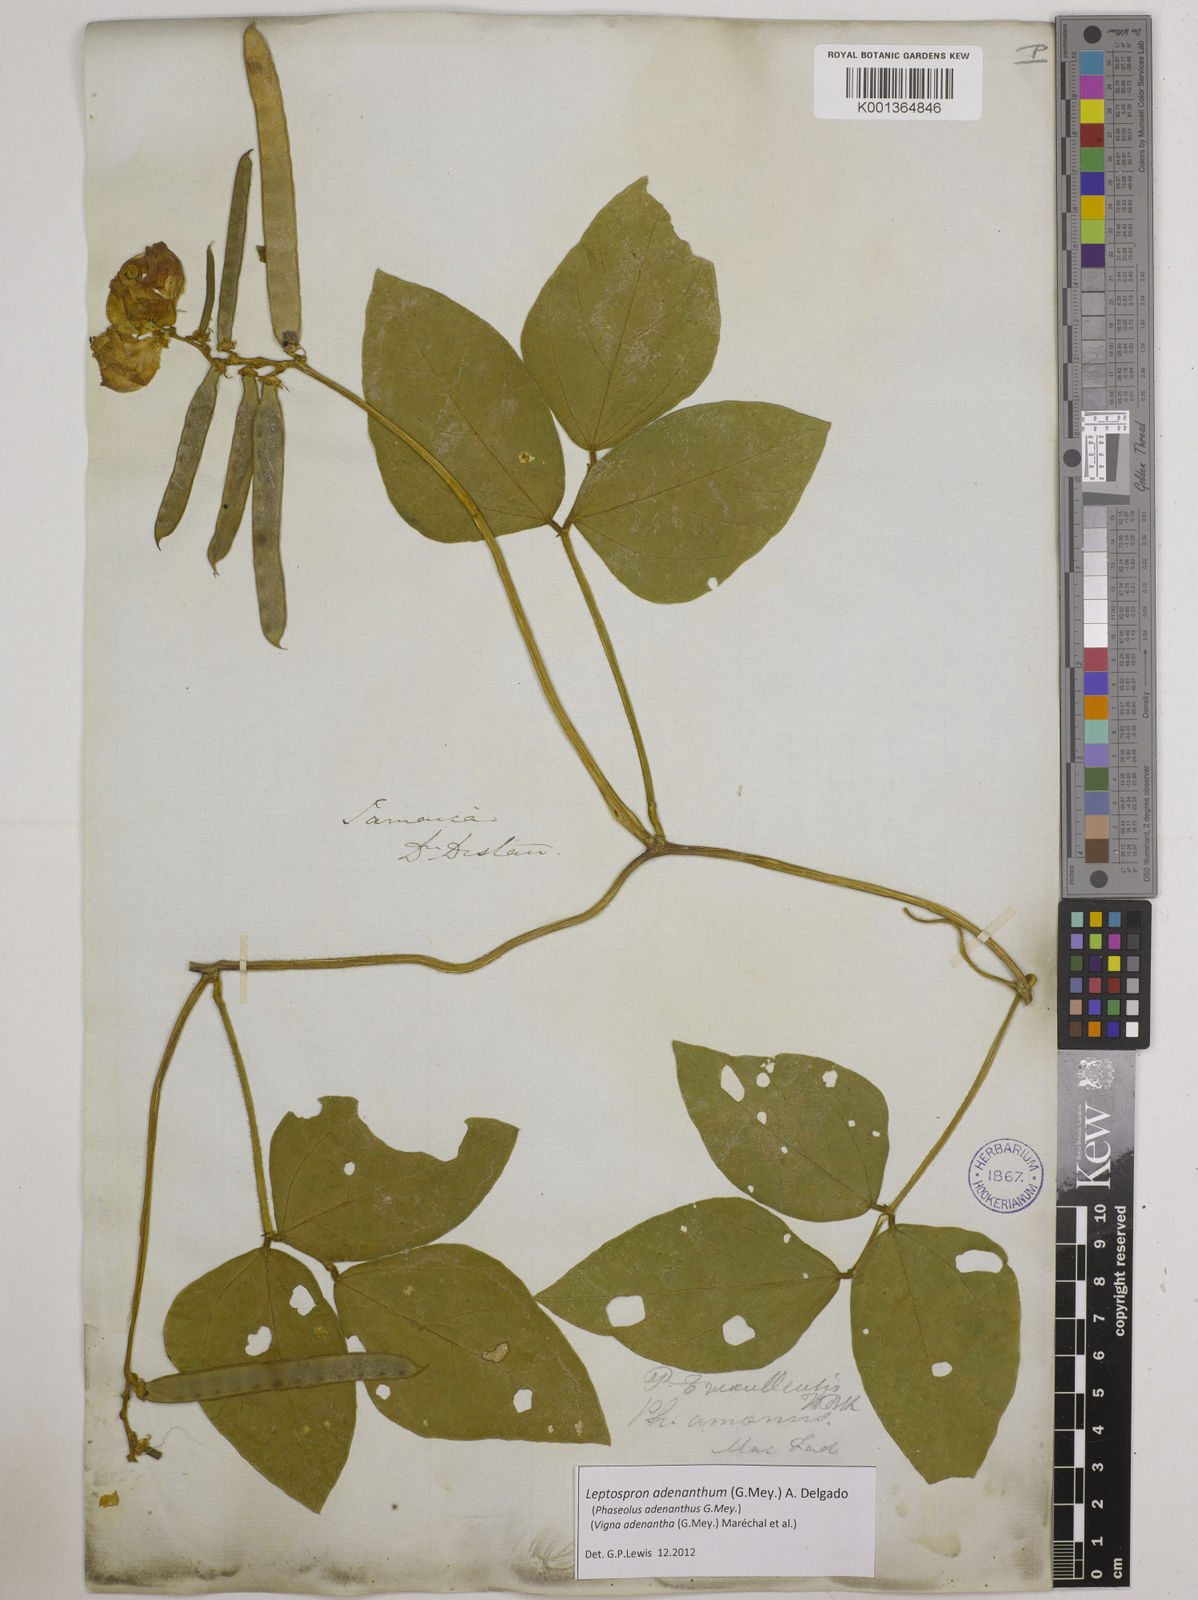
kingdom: Plantae
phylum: Tracheophyta
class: Magnoliopsida
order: Fabales
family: Fabaceae
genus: Leptospron
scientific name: Leptospron adenanthum
